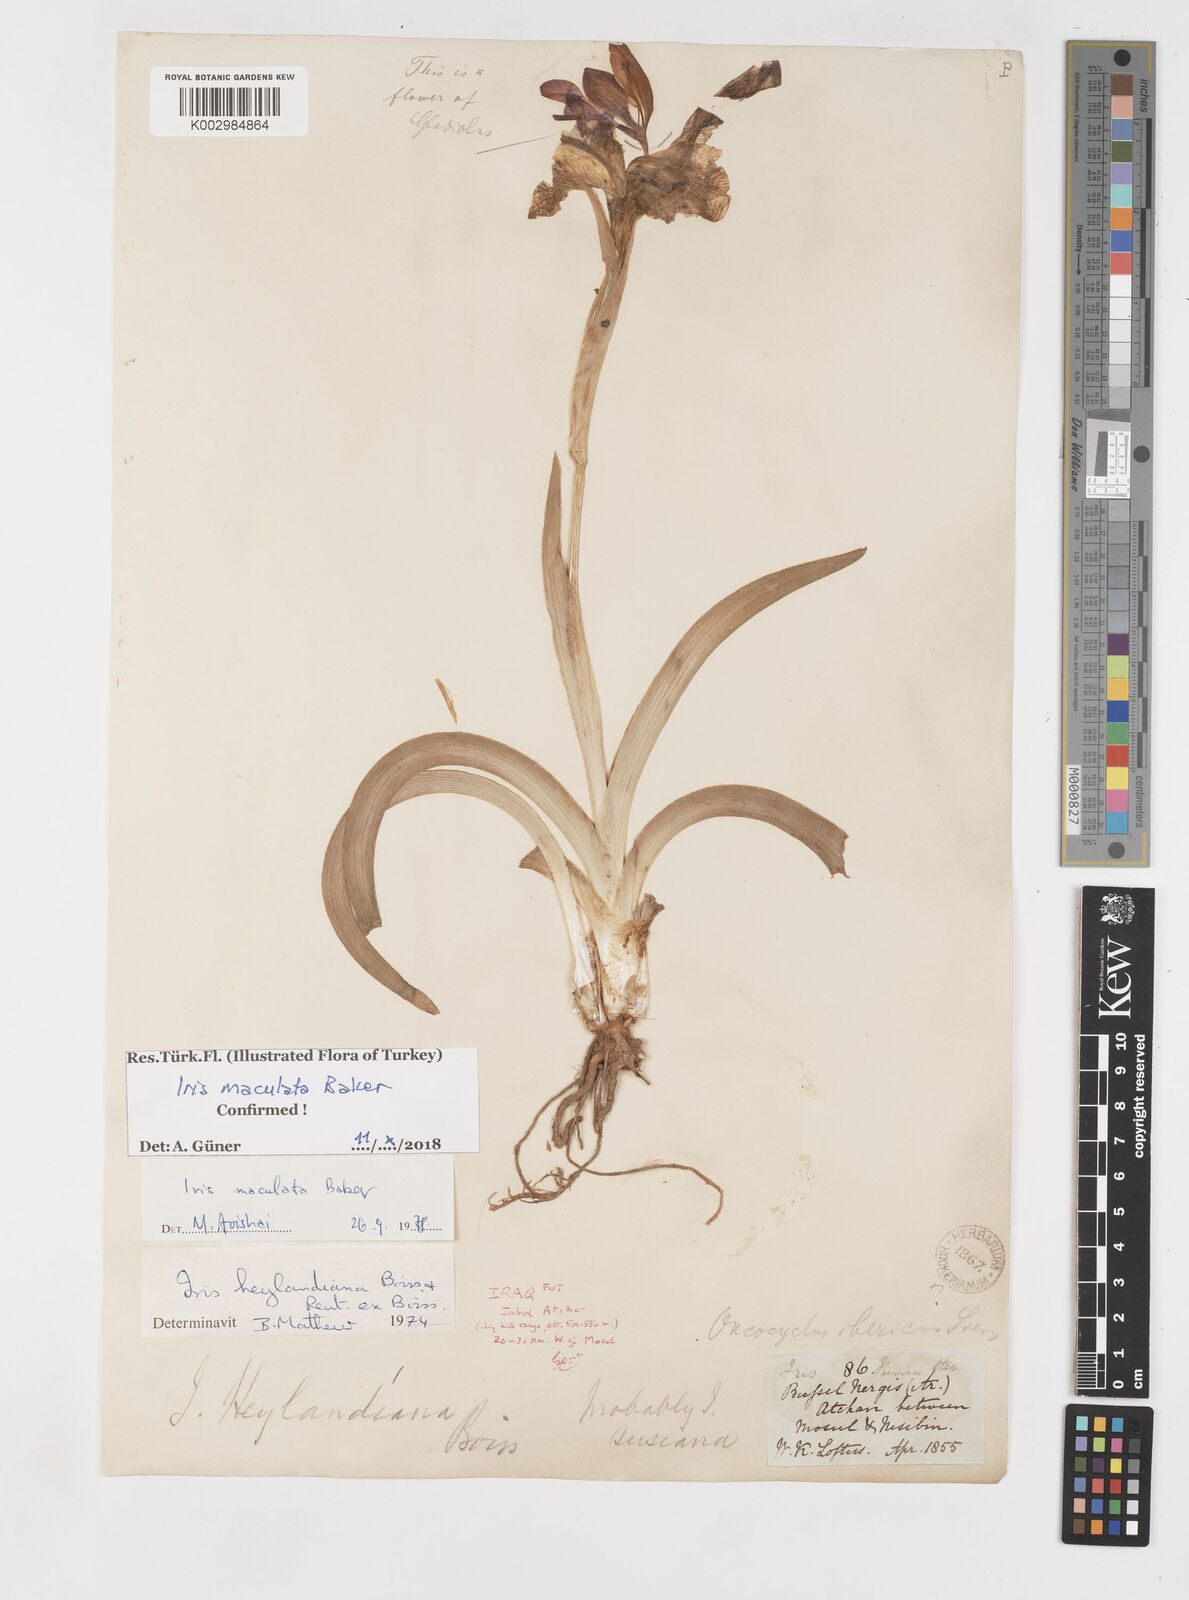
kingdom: Plantae
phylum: Tracheophyta
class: Liliopsida
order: Asparagales
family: Iridaceae
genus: Iris
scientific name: Iris maculata
